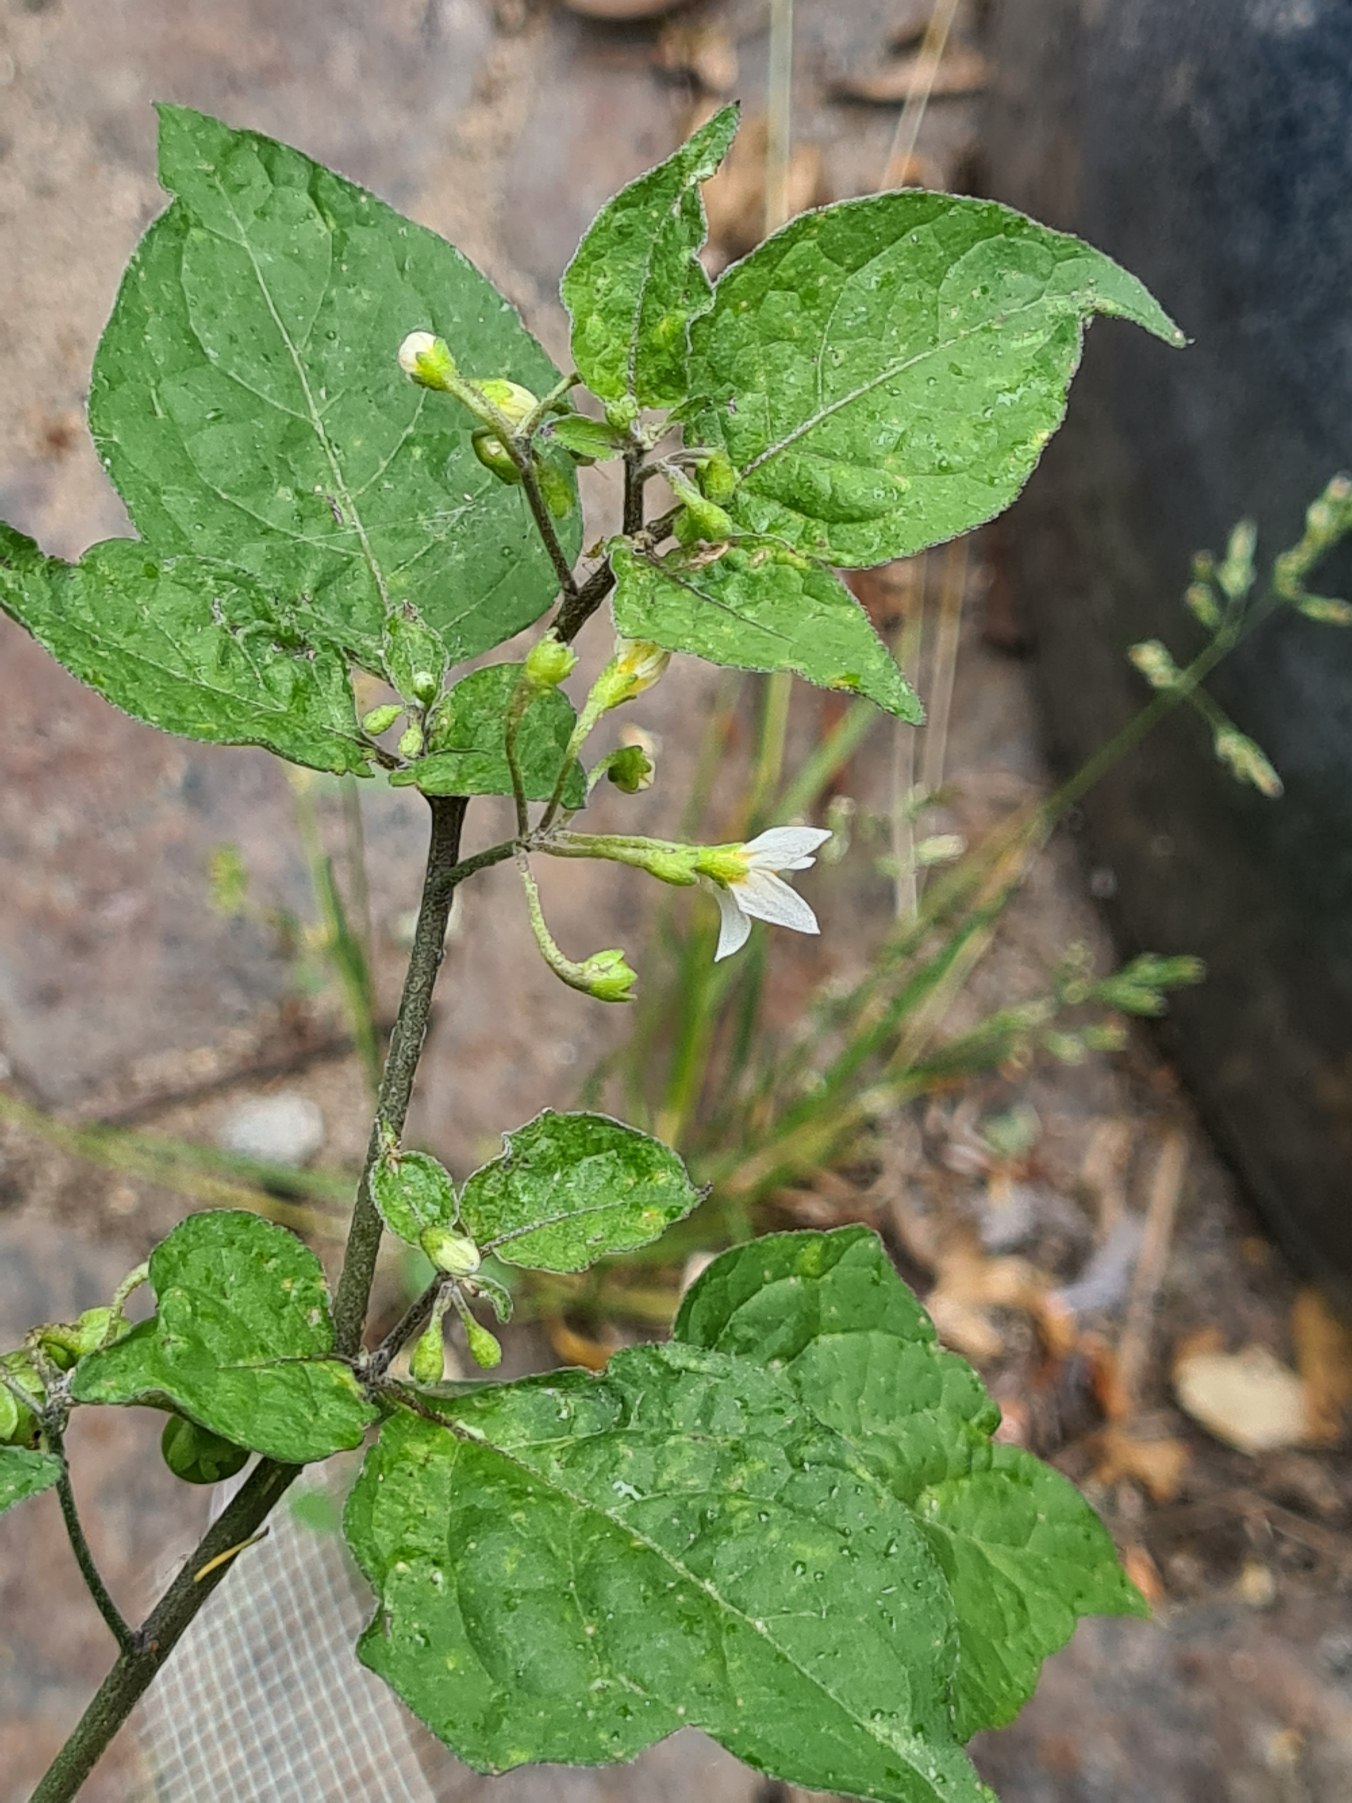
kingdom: Plantae
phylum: Tracheophyta
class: Magnoliopsida
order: Solanales
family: Solanaceae
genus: Solanum
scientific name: Solanum nigrum
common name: Sort natskygge
